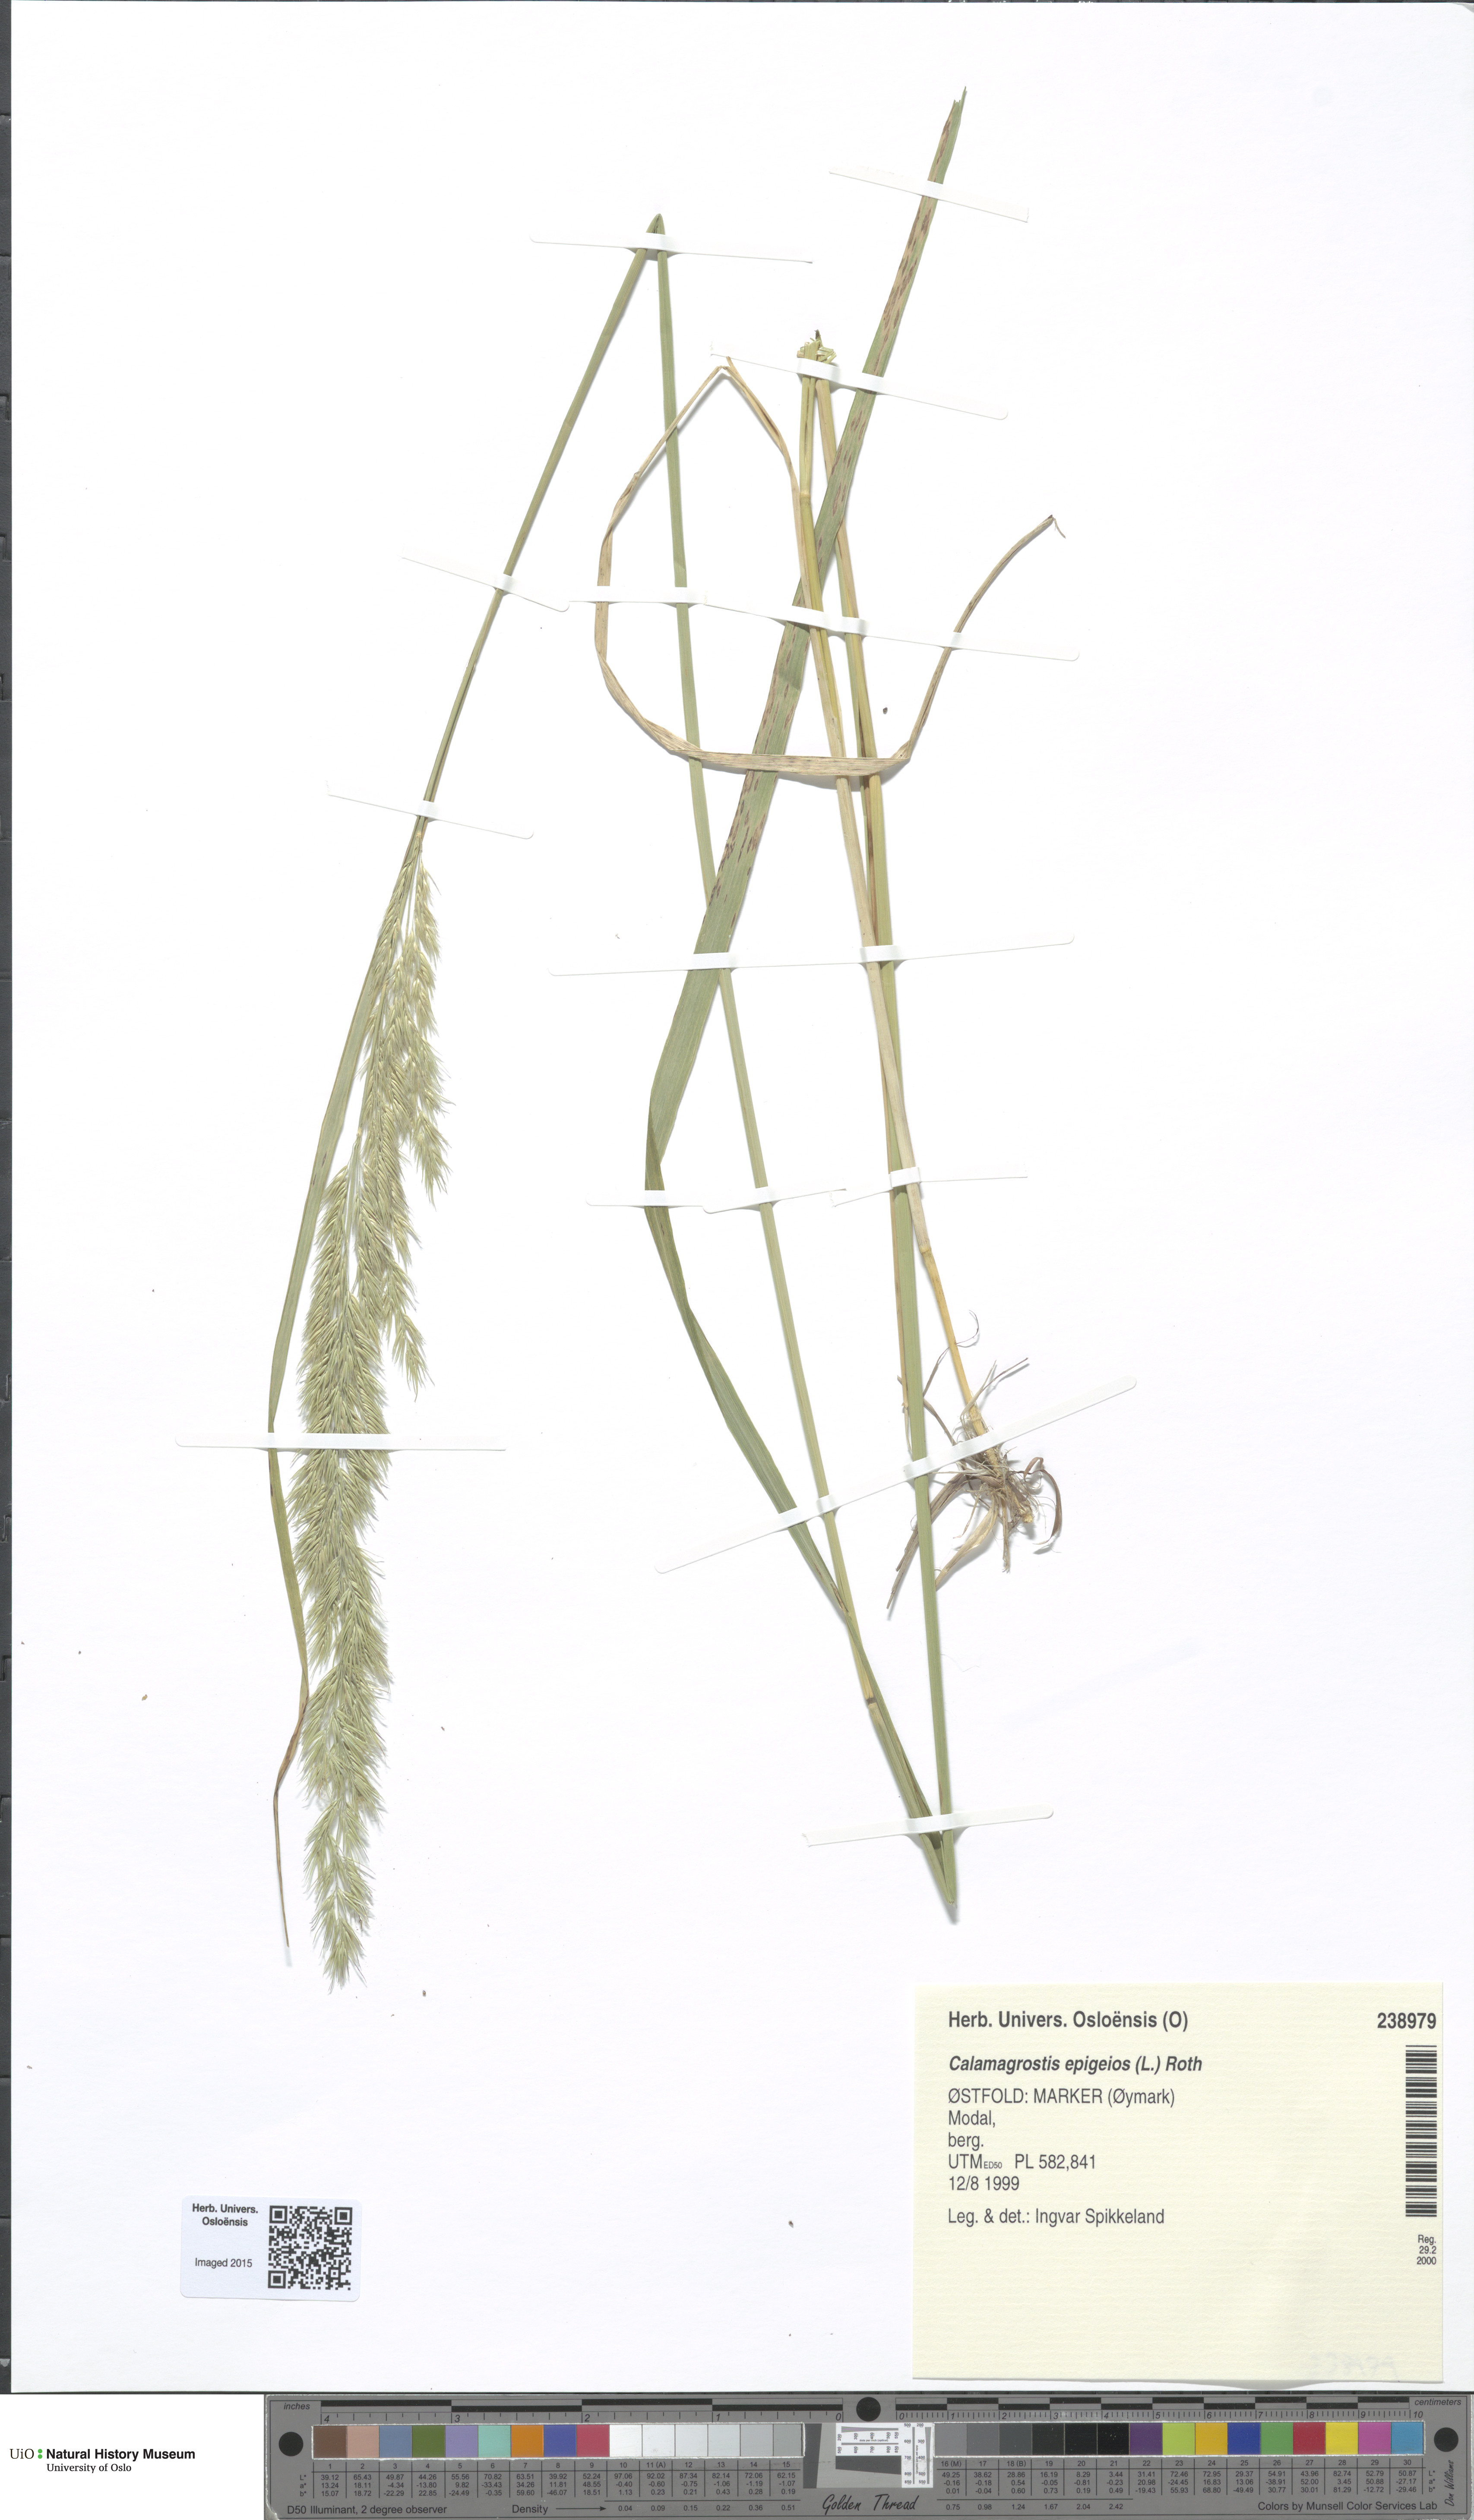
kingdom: Plantae
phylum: Tracheophyta
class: Liliopsida
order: Poales
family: Poaceae
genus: Calamagrostis
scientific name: Calamagrostis epigejos
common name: Wood small-reed
